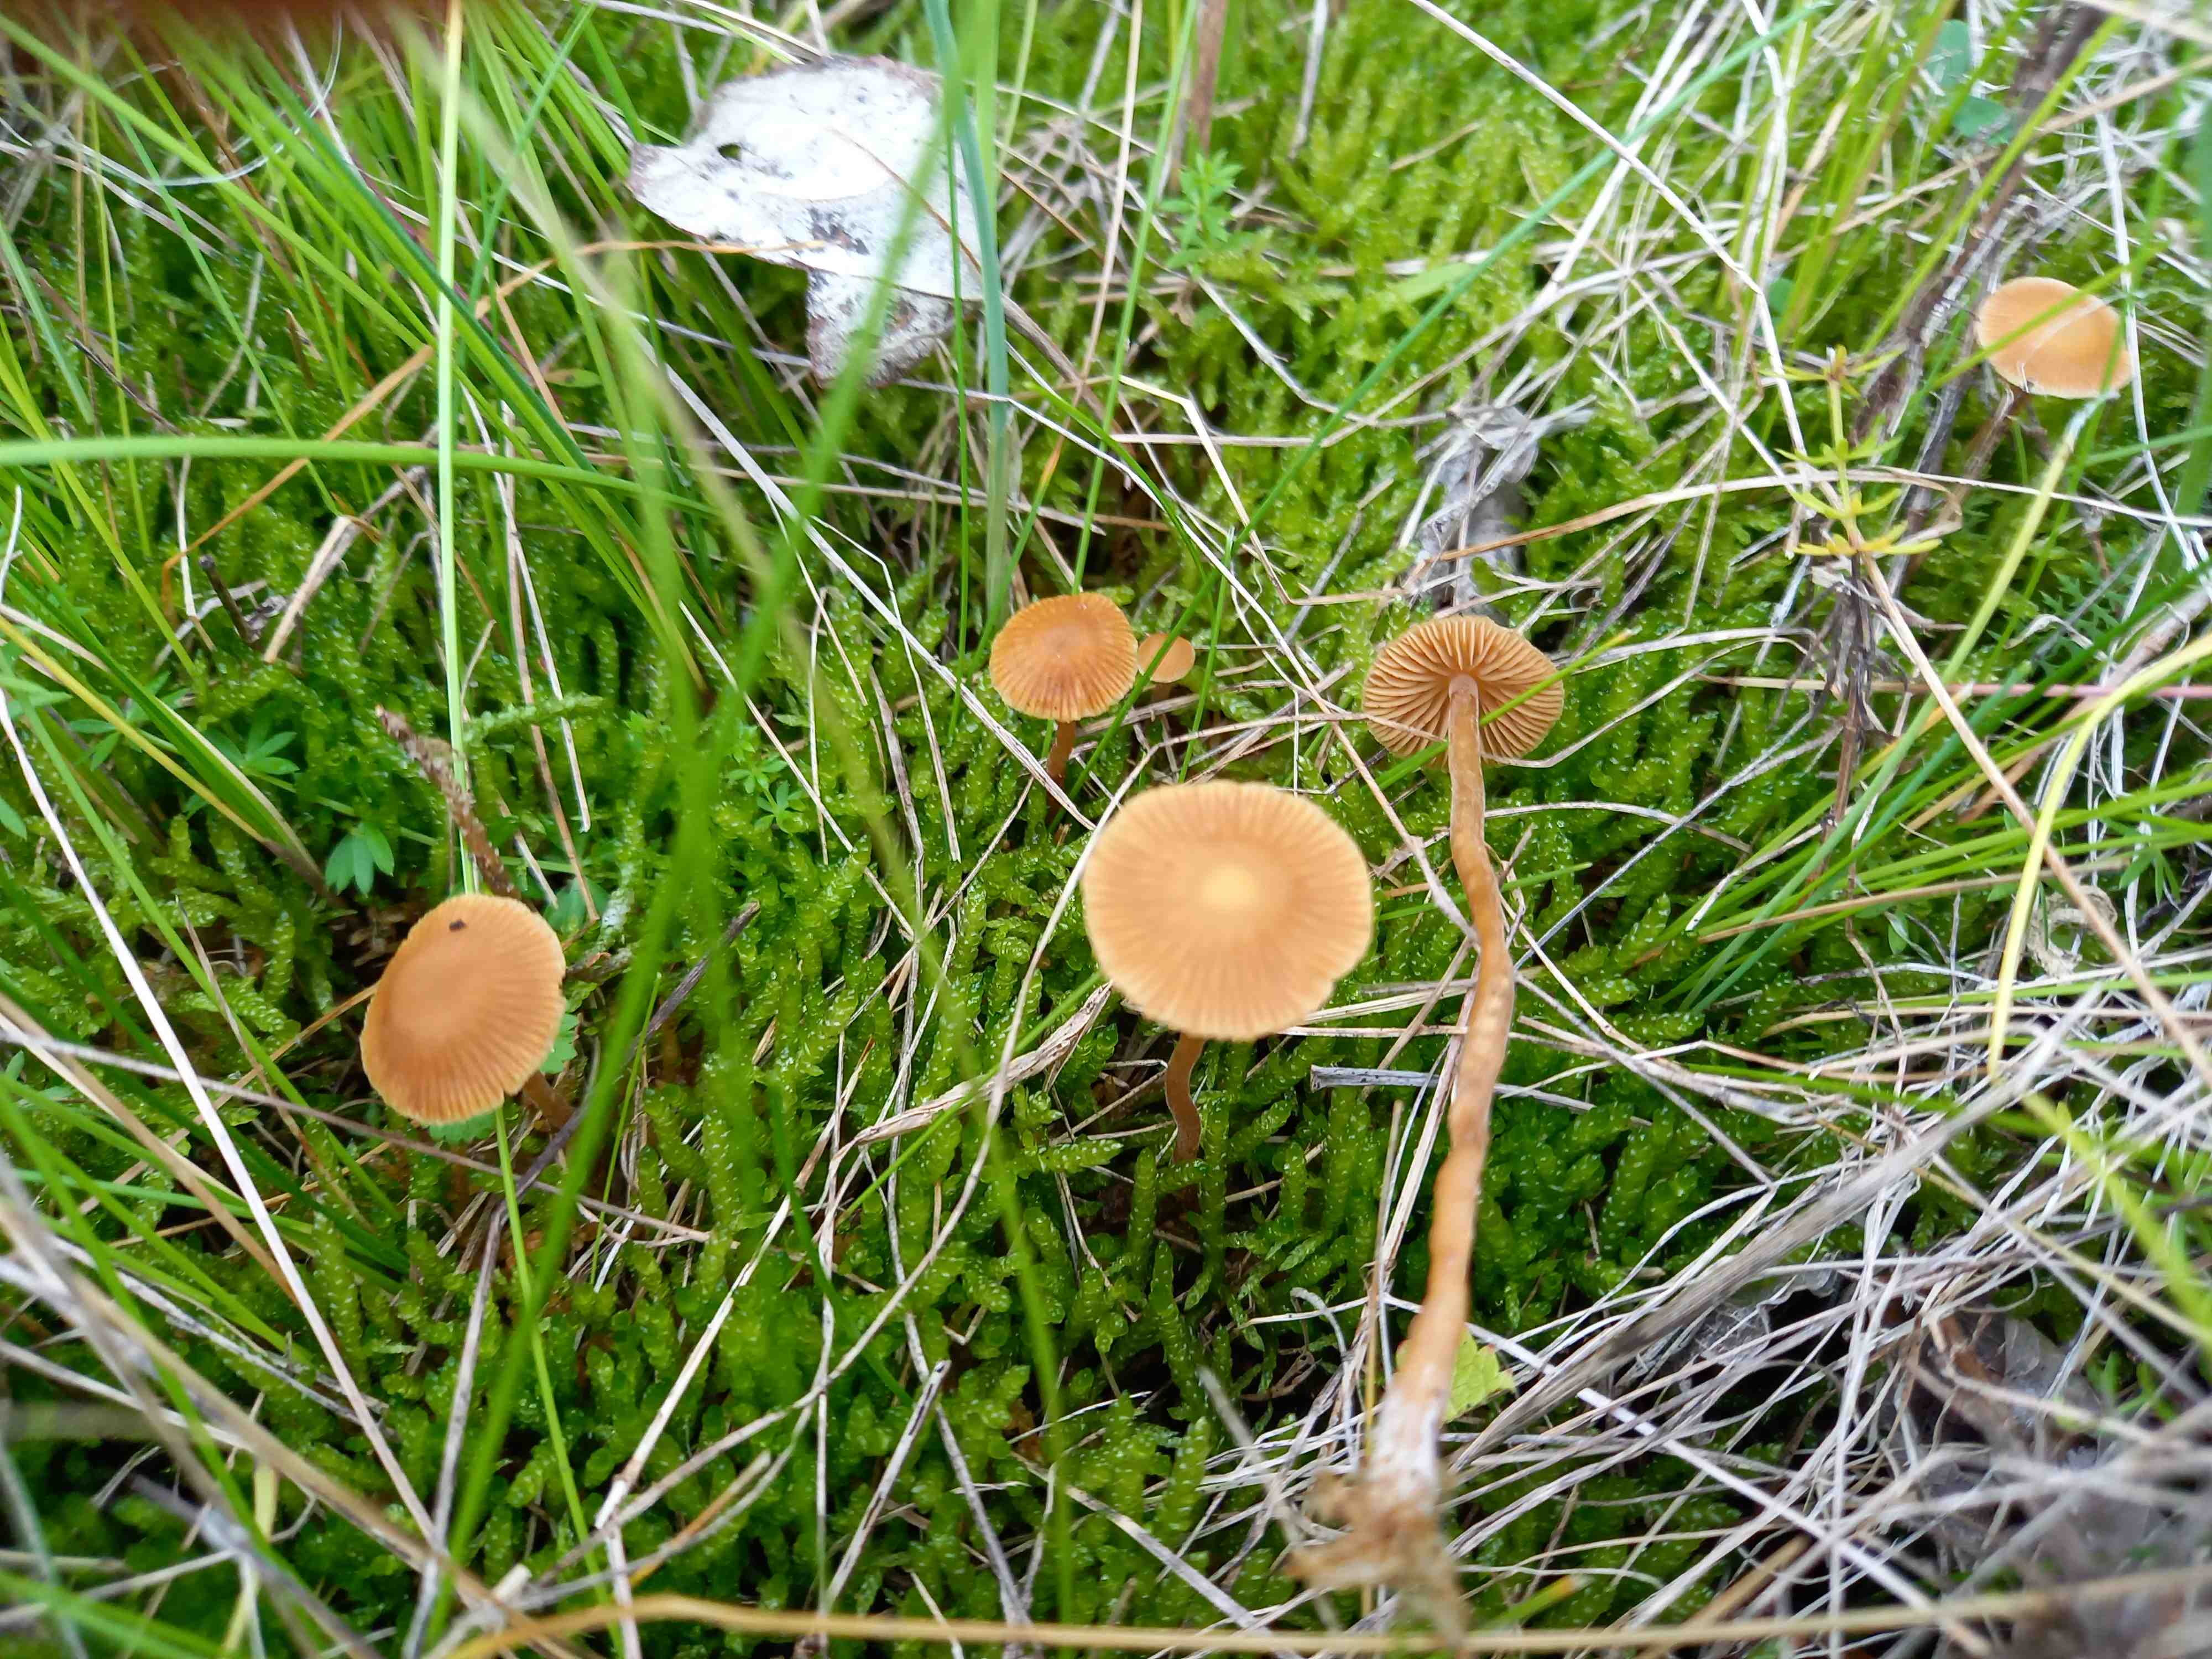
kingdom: Fungi
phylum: Basidiomycota
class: Agaricomycetes
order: Agaricales
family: Hymenogastraceae
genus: Galerina
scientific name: Galerina
